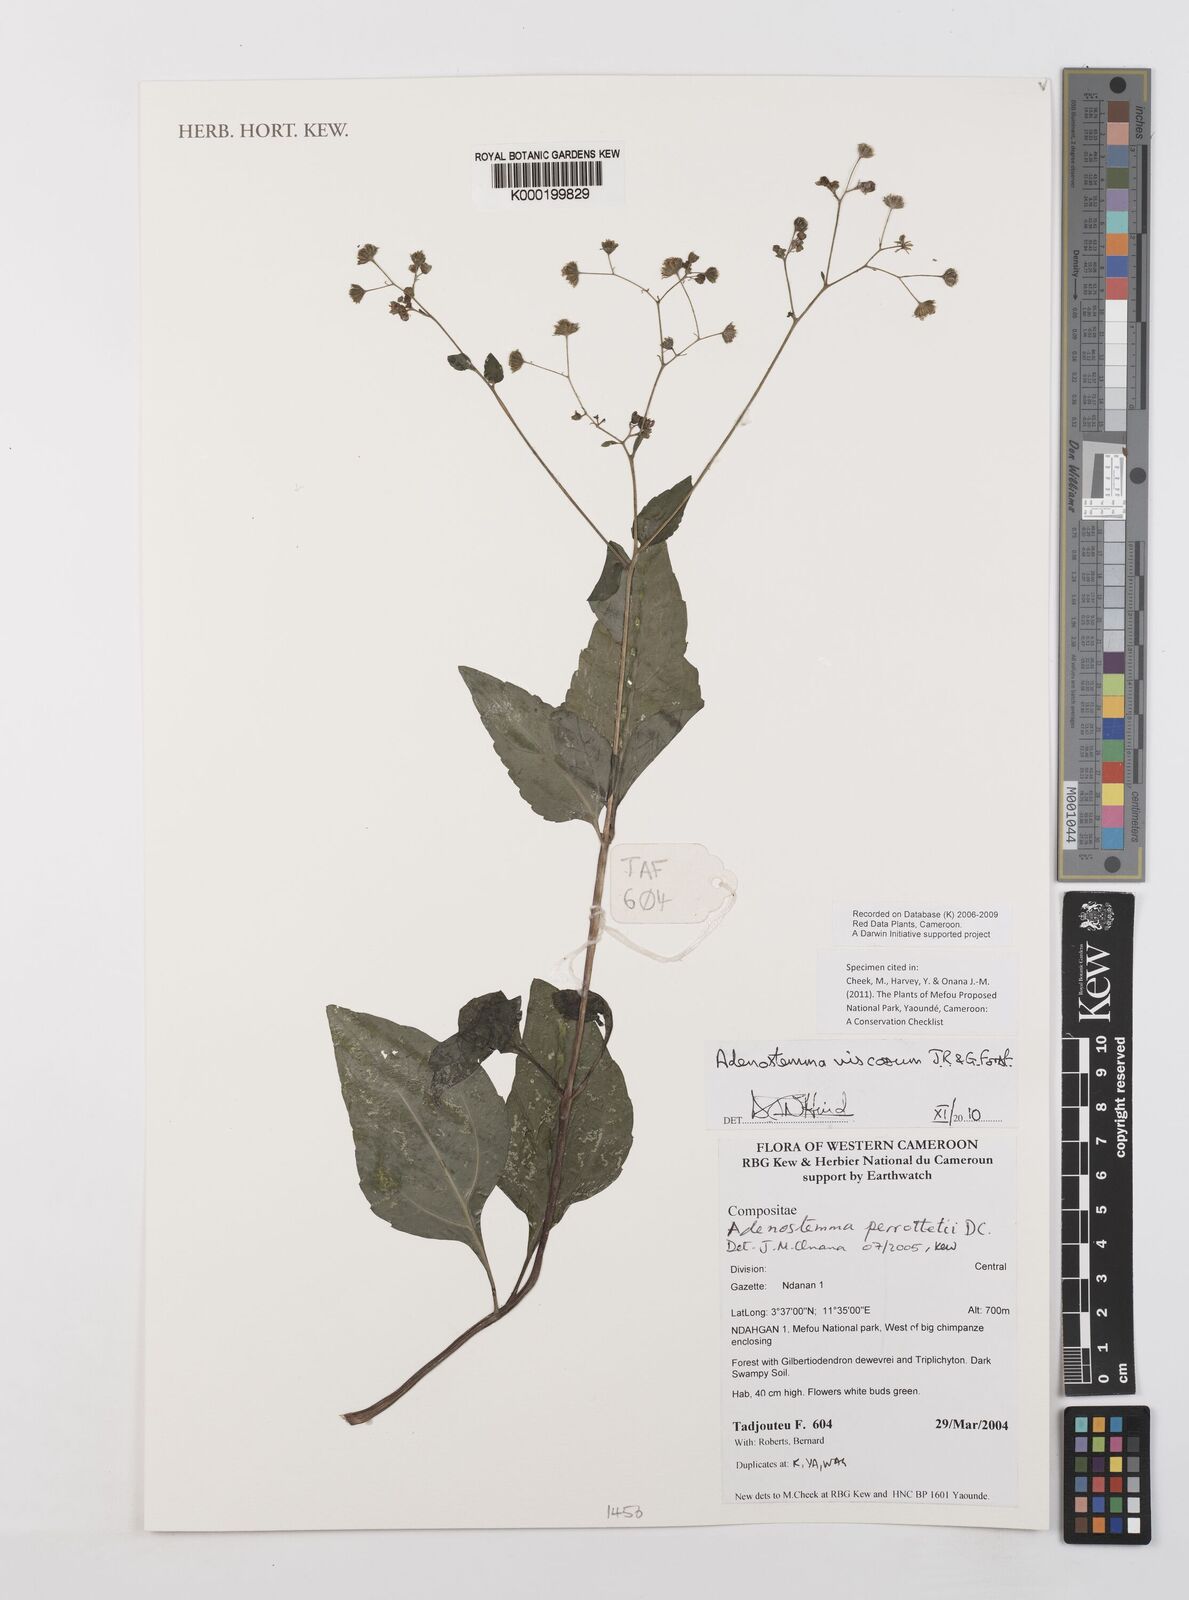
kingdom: Plantae
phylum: Tracheophyta
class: Magnoliopsida
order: Asterales
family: Asteraceae
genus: Adenostemma
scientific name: Adenostemma viscosum
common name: Dungweed
